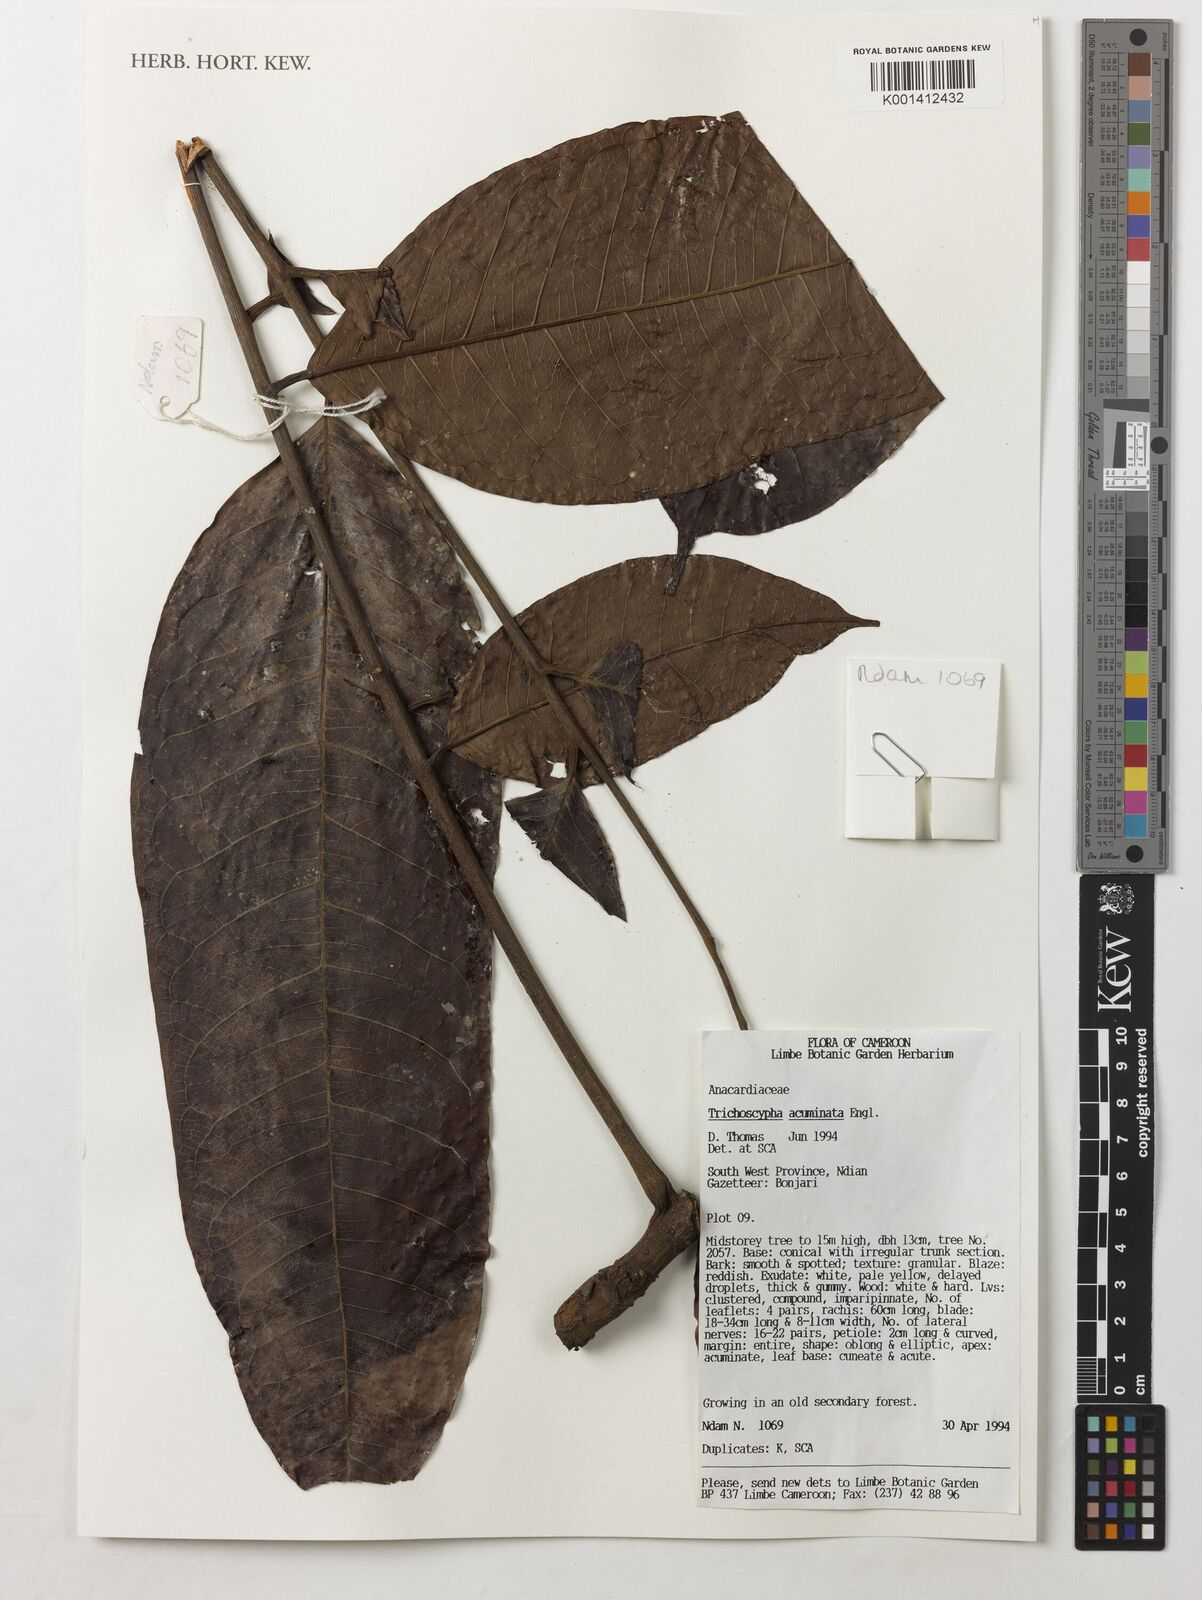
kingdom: Plantae
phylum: Tracheophyta
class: Magnoliopsida
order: Sapindales
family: Anacardiaceae
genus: Trichoscypha
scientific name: Trichoscypha acuminata
